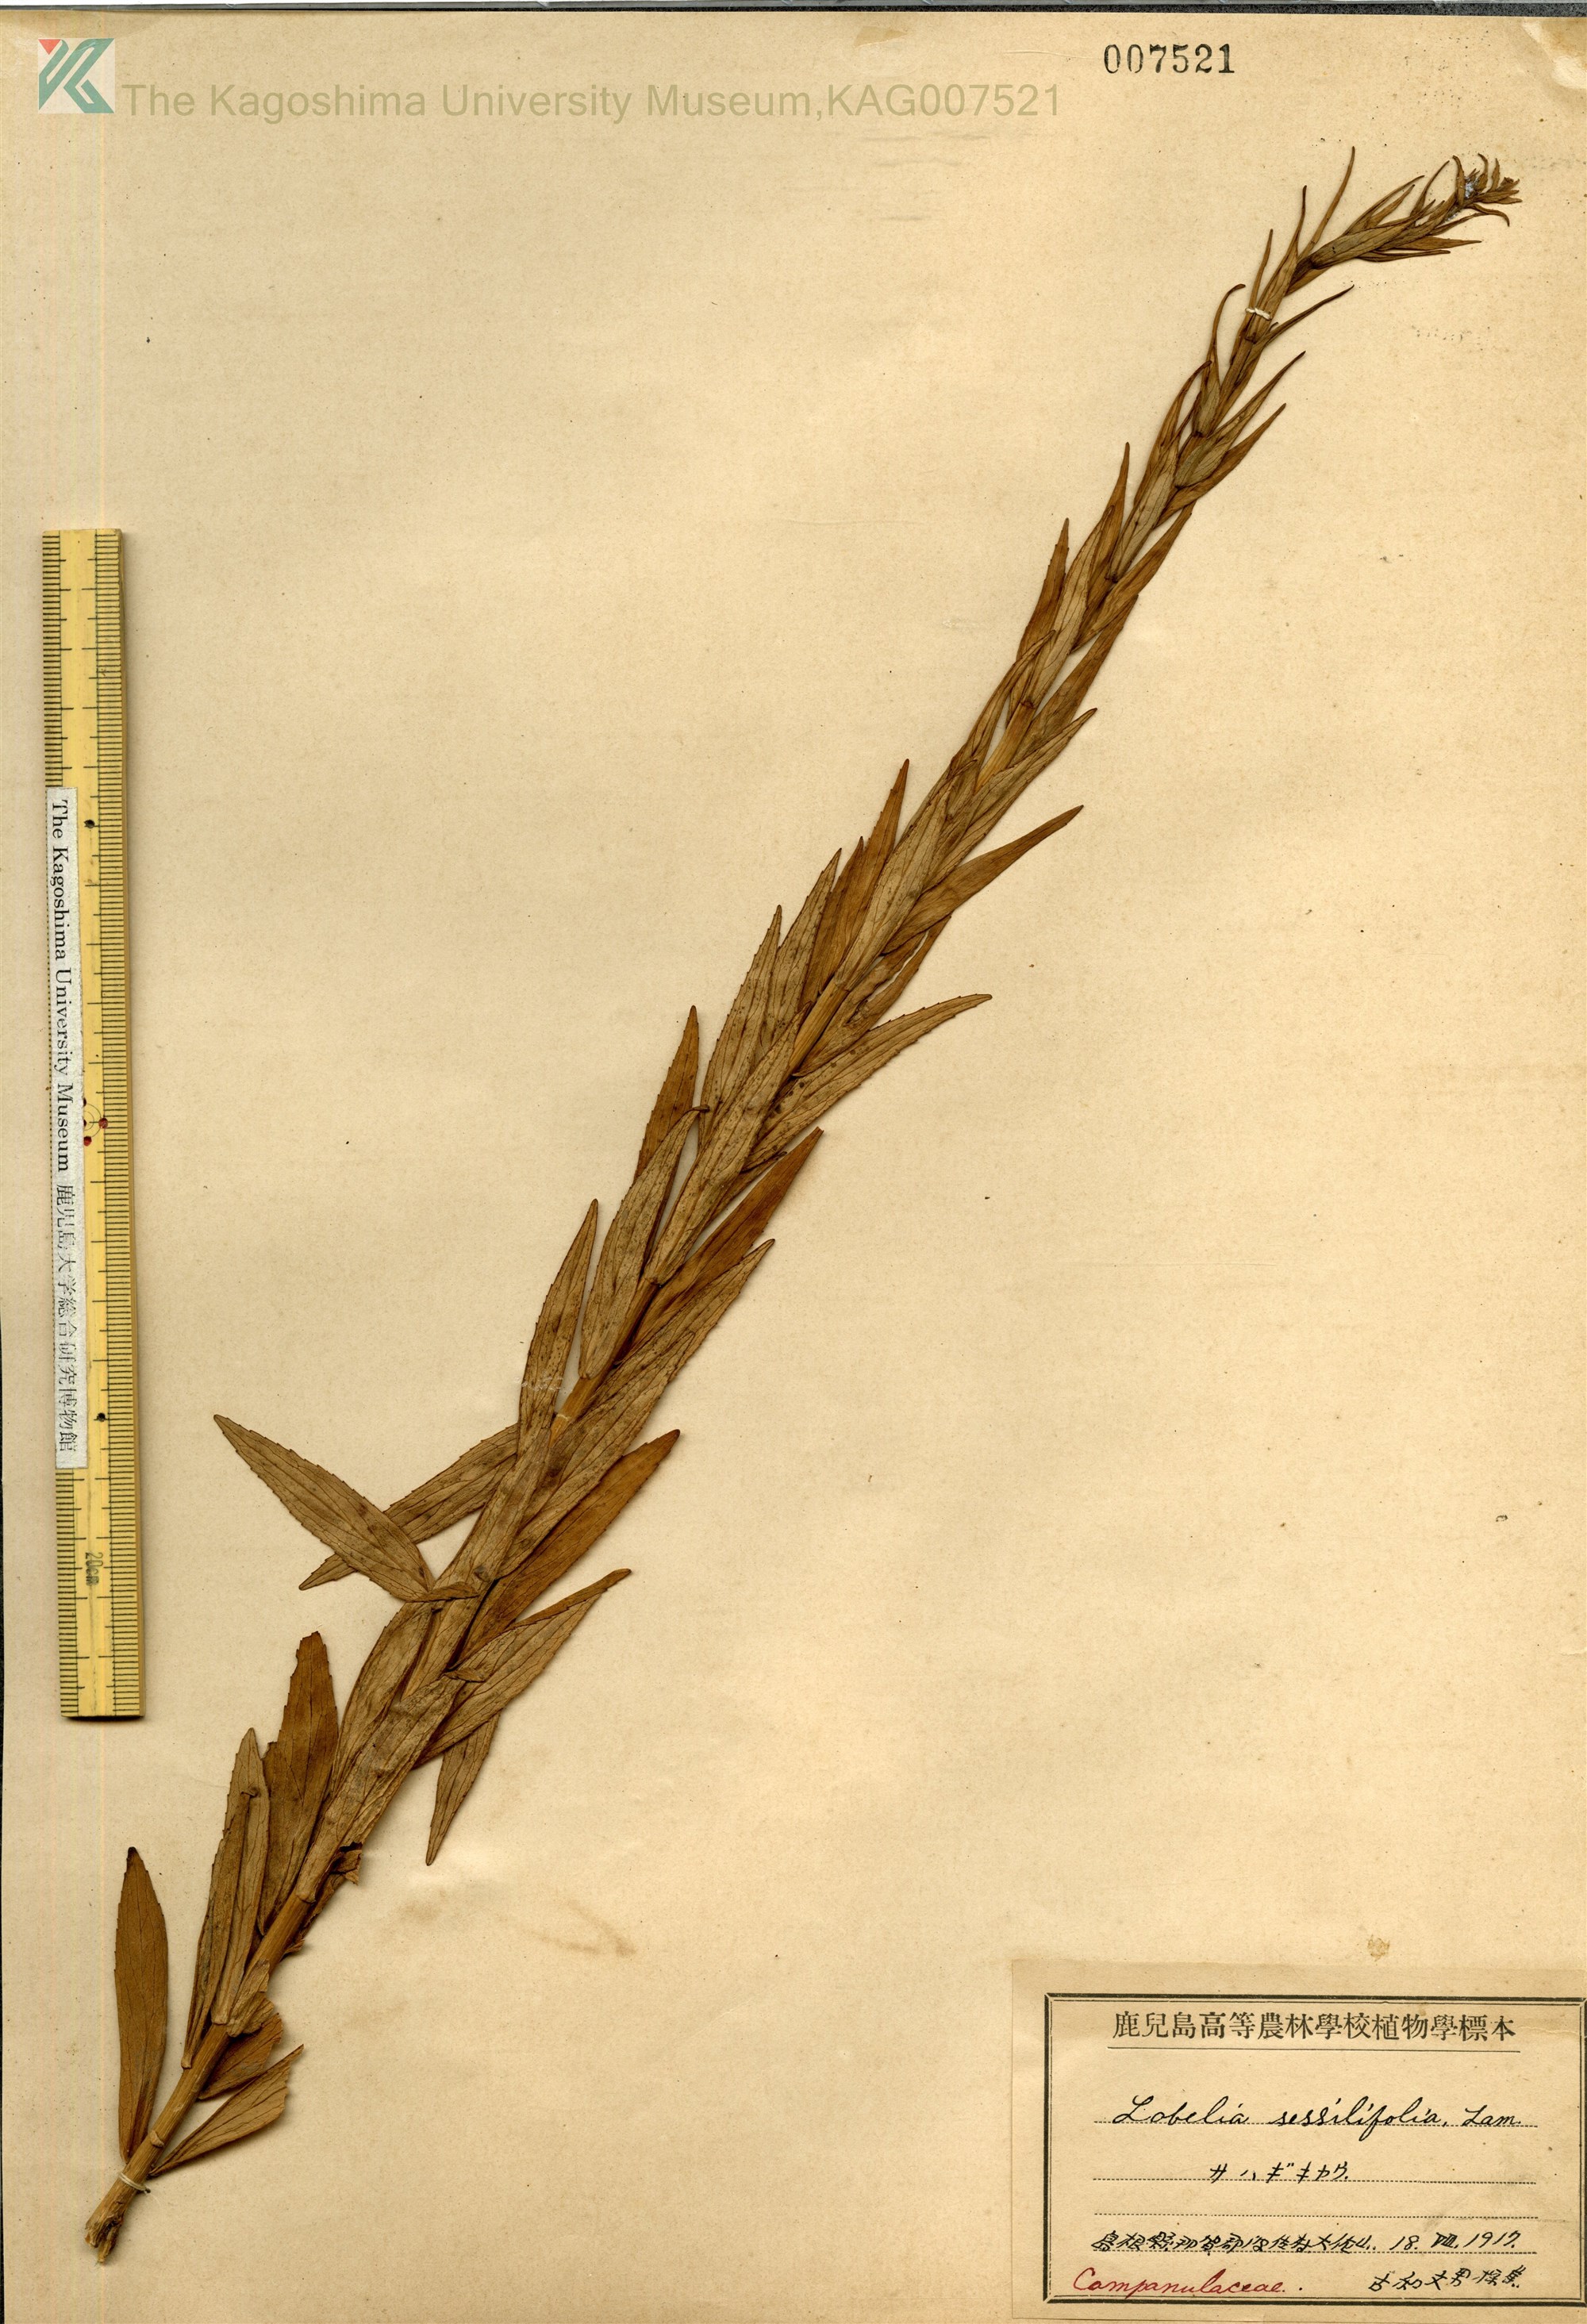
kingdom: Plantae
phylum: Tracheophyta
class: Magnoliopsida
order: Asterales
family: Campanulaceae
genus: Lobelia
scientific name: Lobelia sessilifolia
